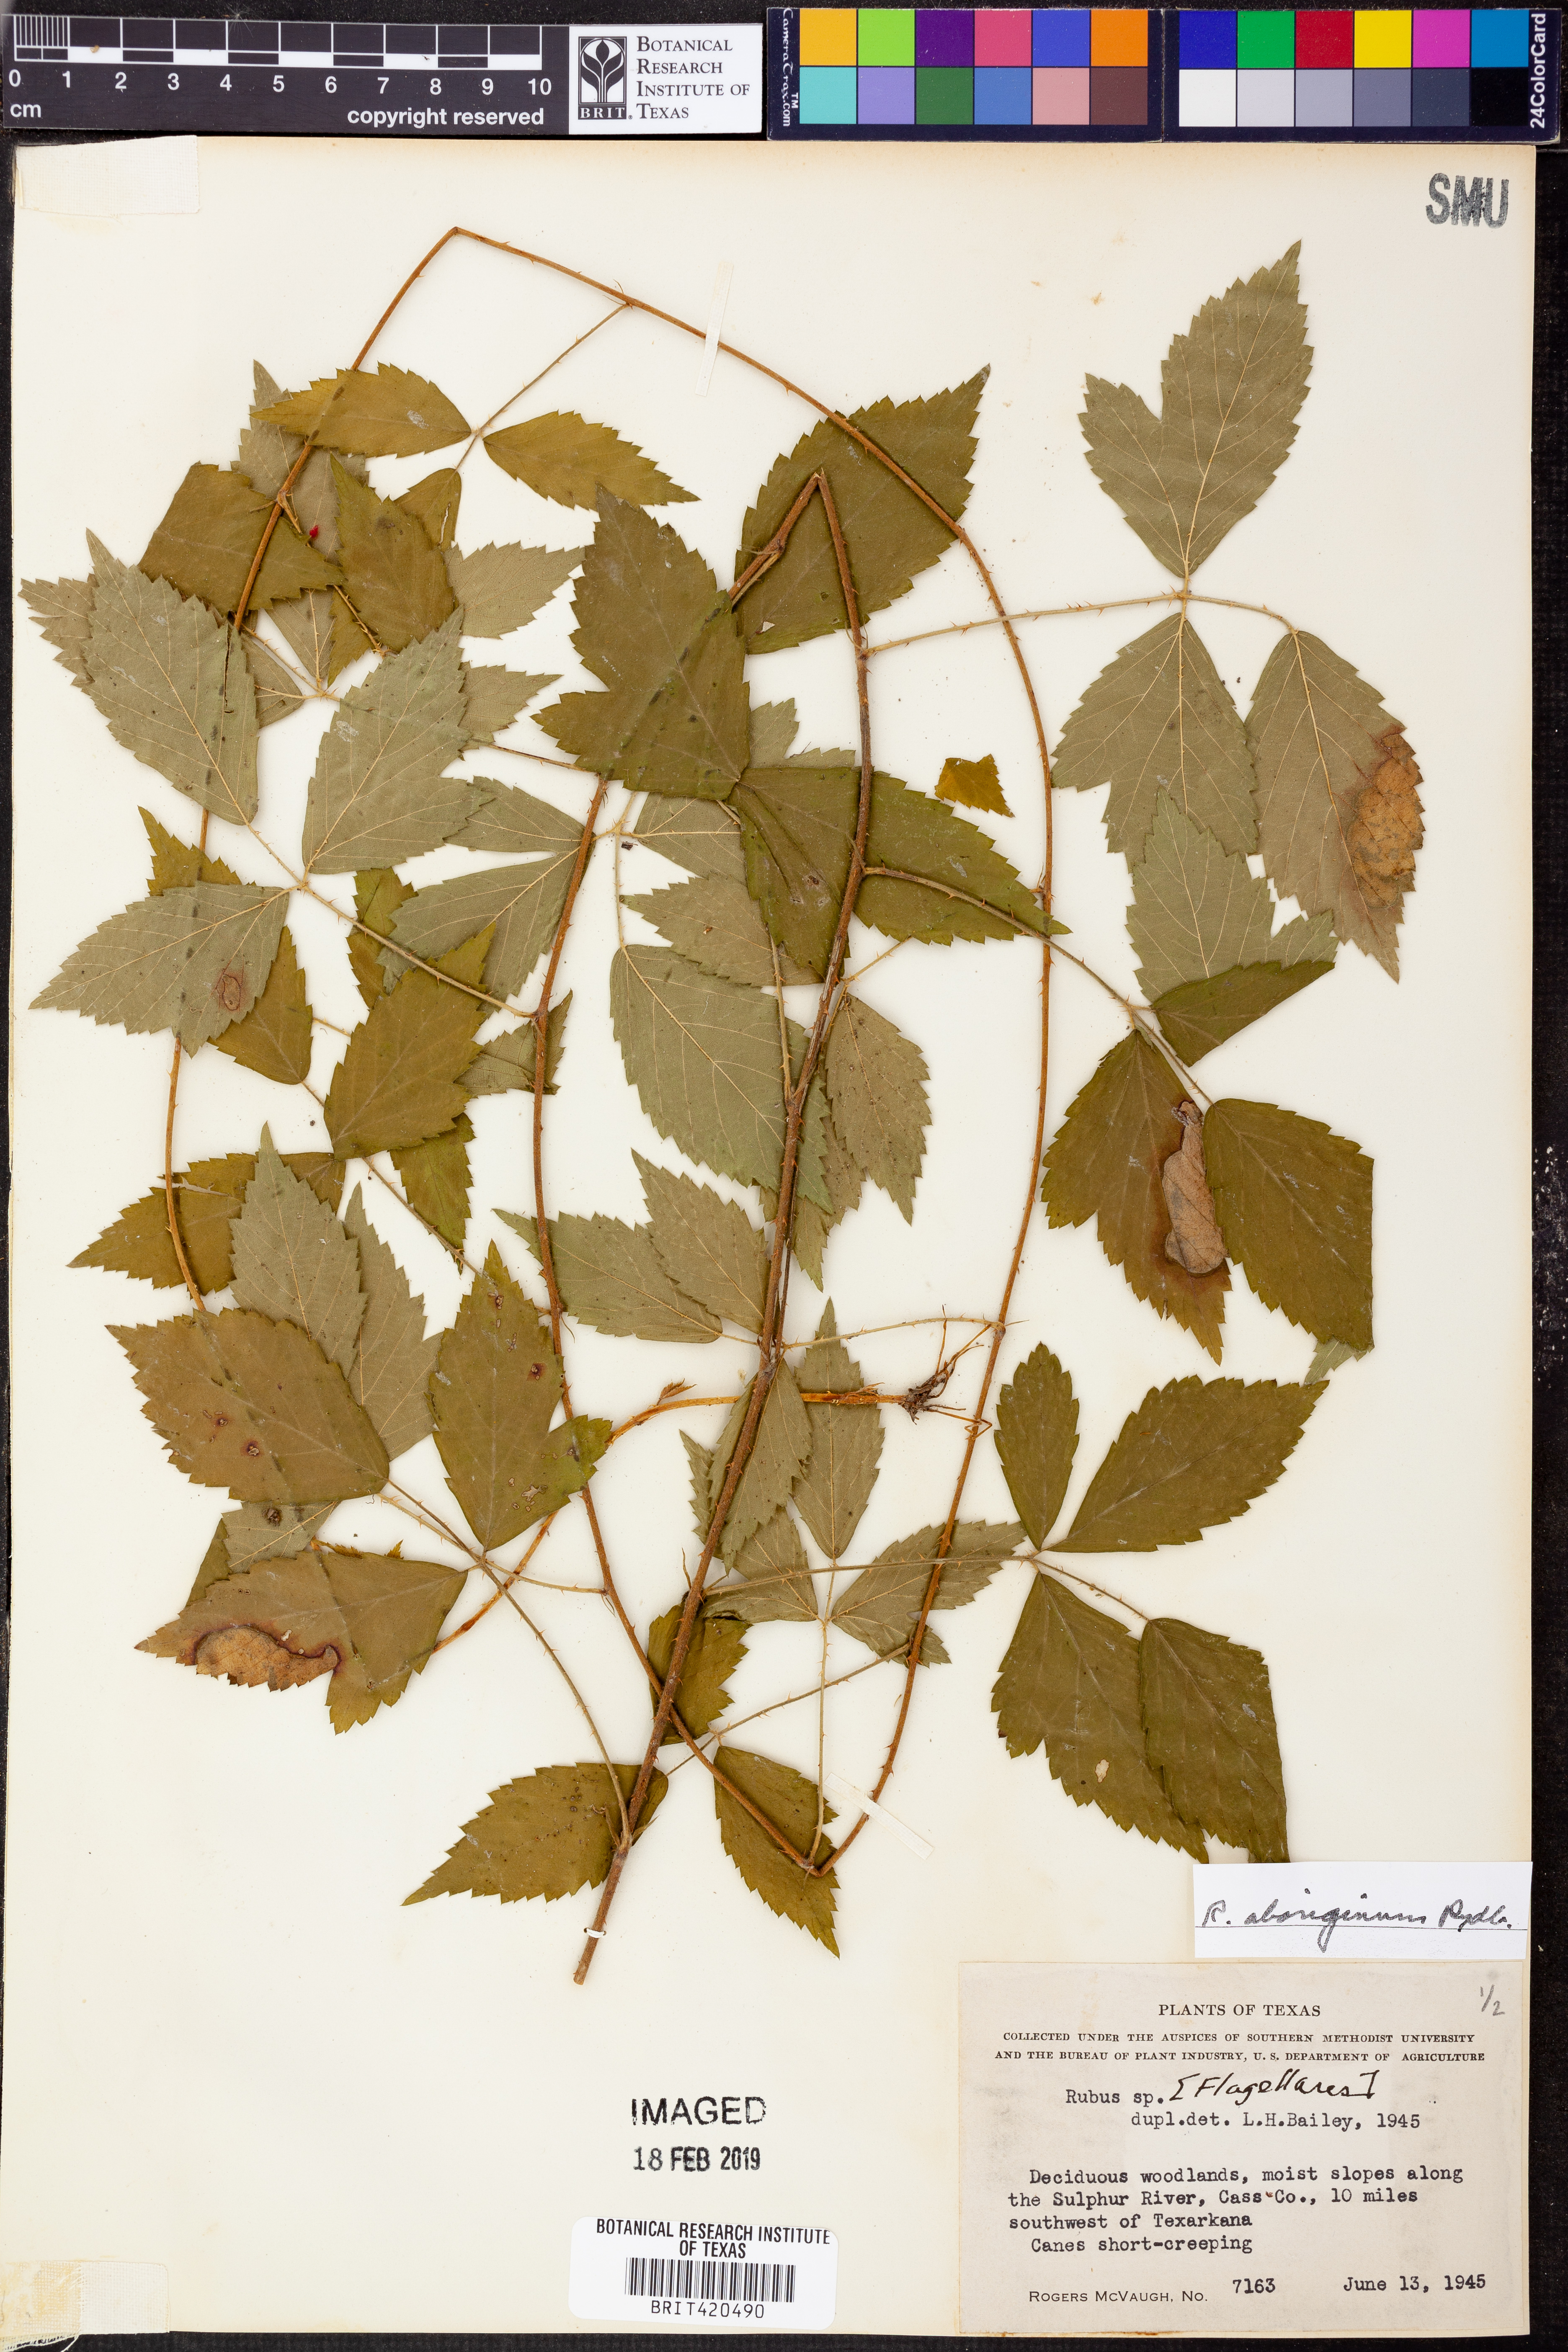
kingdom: Plantae
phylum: Tracheophyta
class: Magnoliopsida
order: Rosales
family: Rosaceae
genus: Rubus
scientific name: Rubus aboriginum
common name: Mayes dewberry
